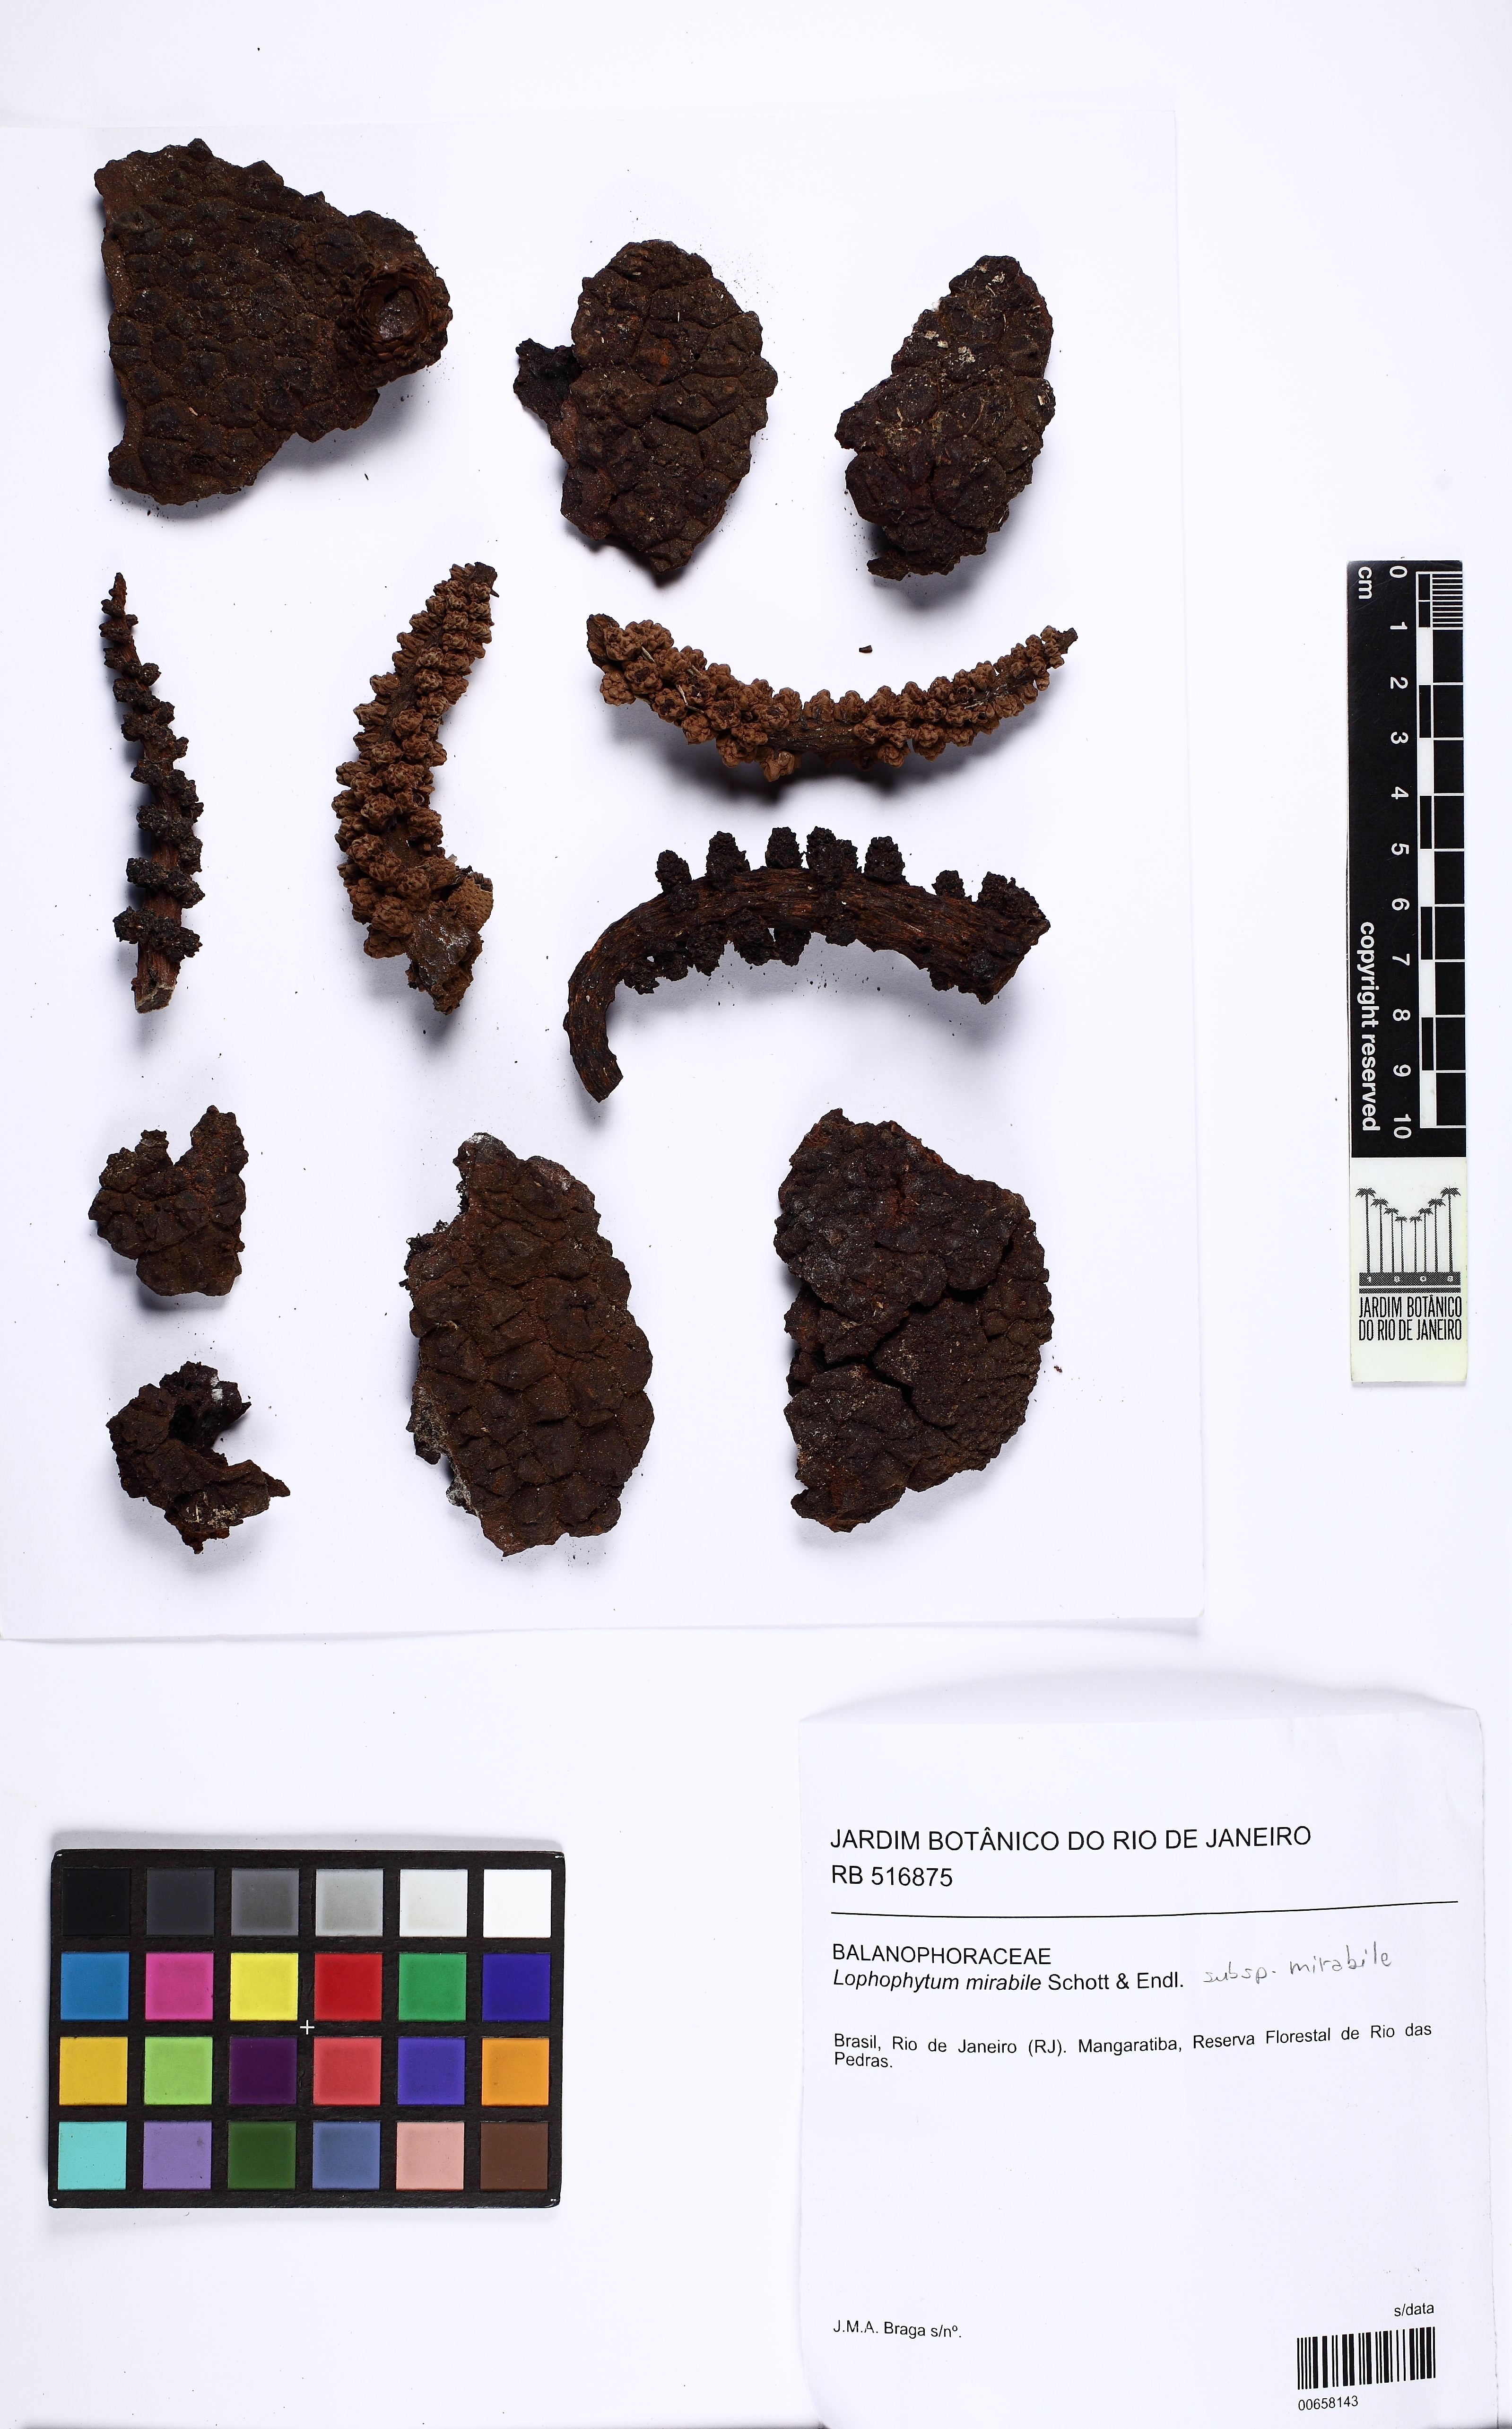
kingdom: Plantae
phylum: Tracheophyta
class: Magnoliopsida
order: Santalales
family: Balanophoraceae
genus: Lophophytum
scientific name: Lophophytum mirabile
